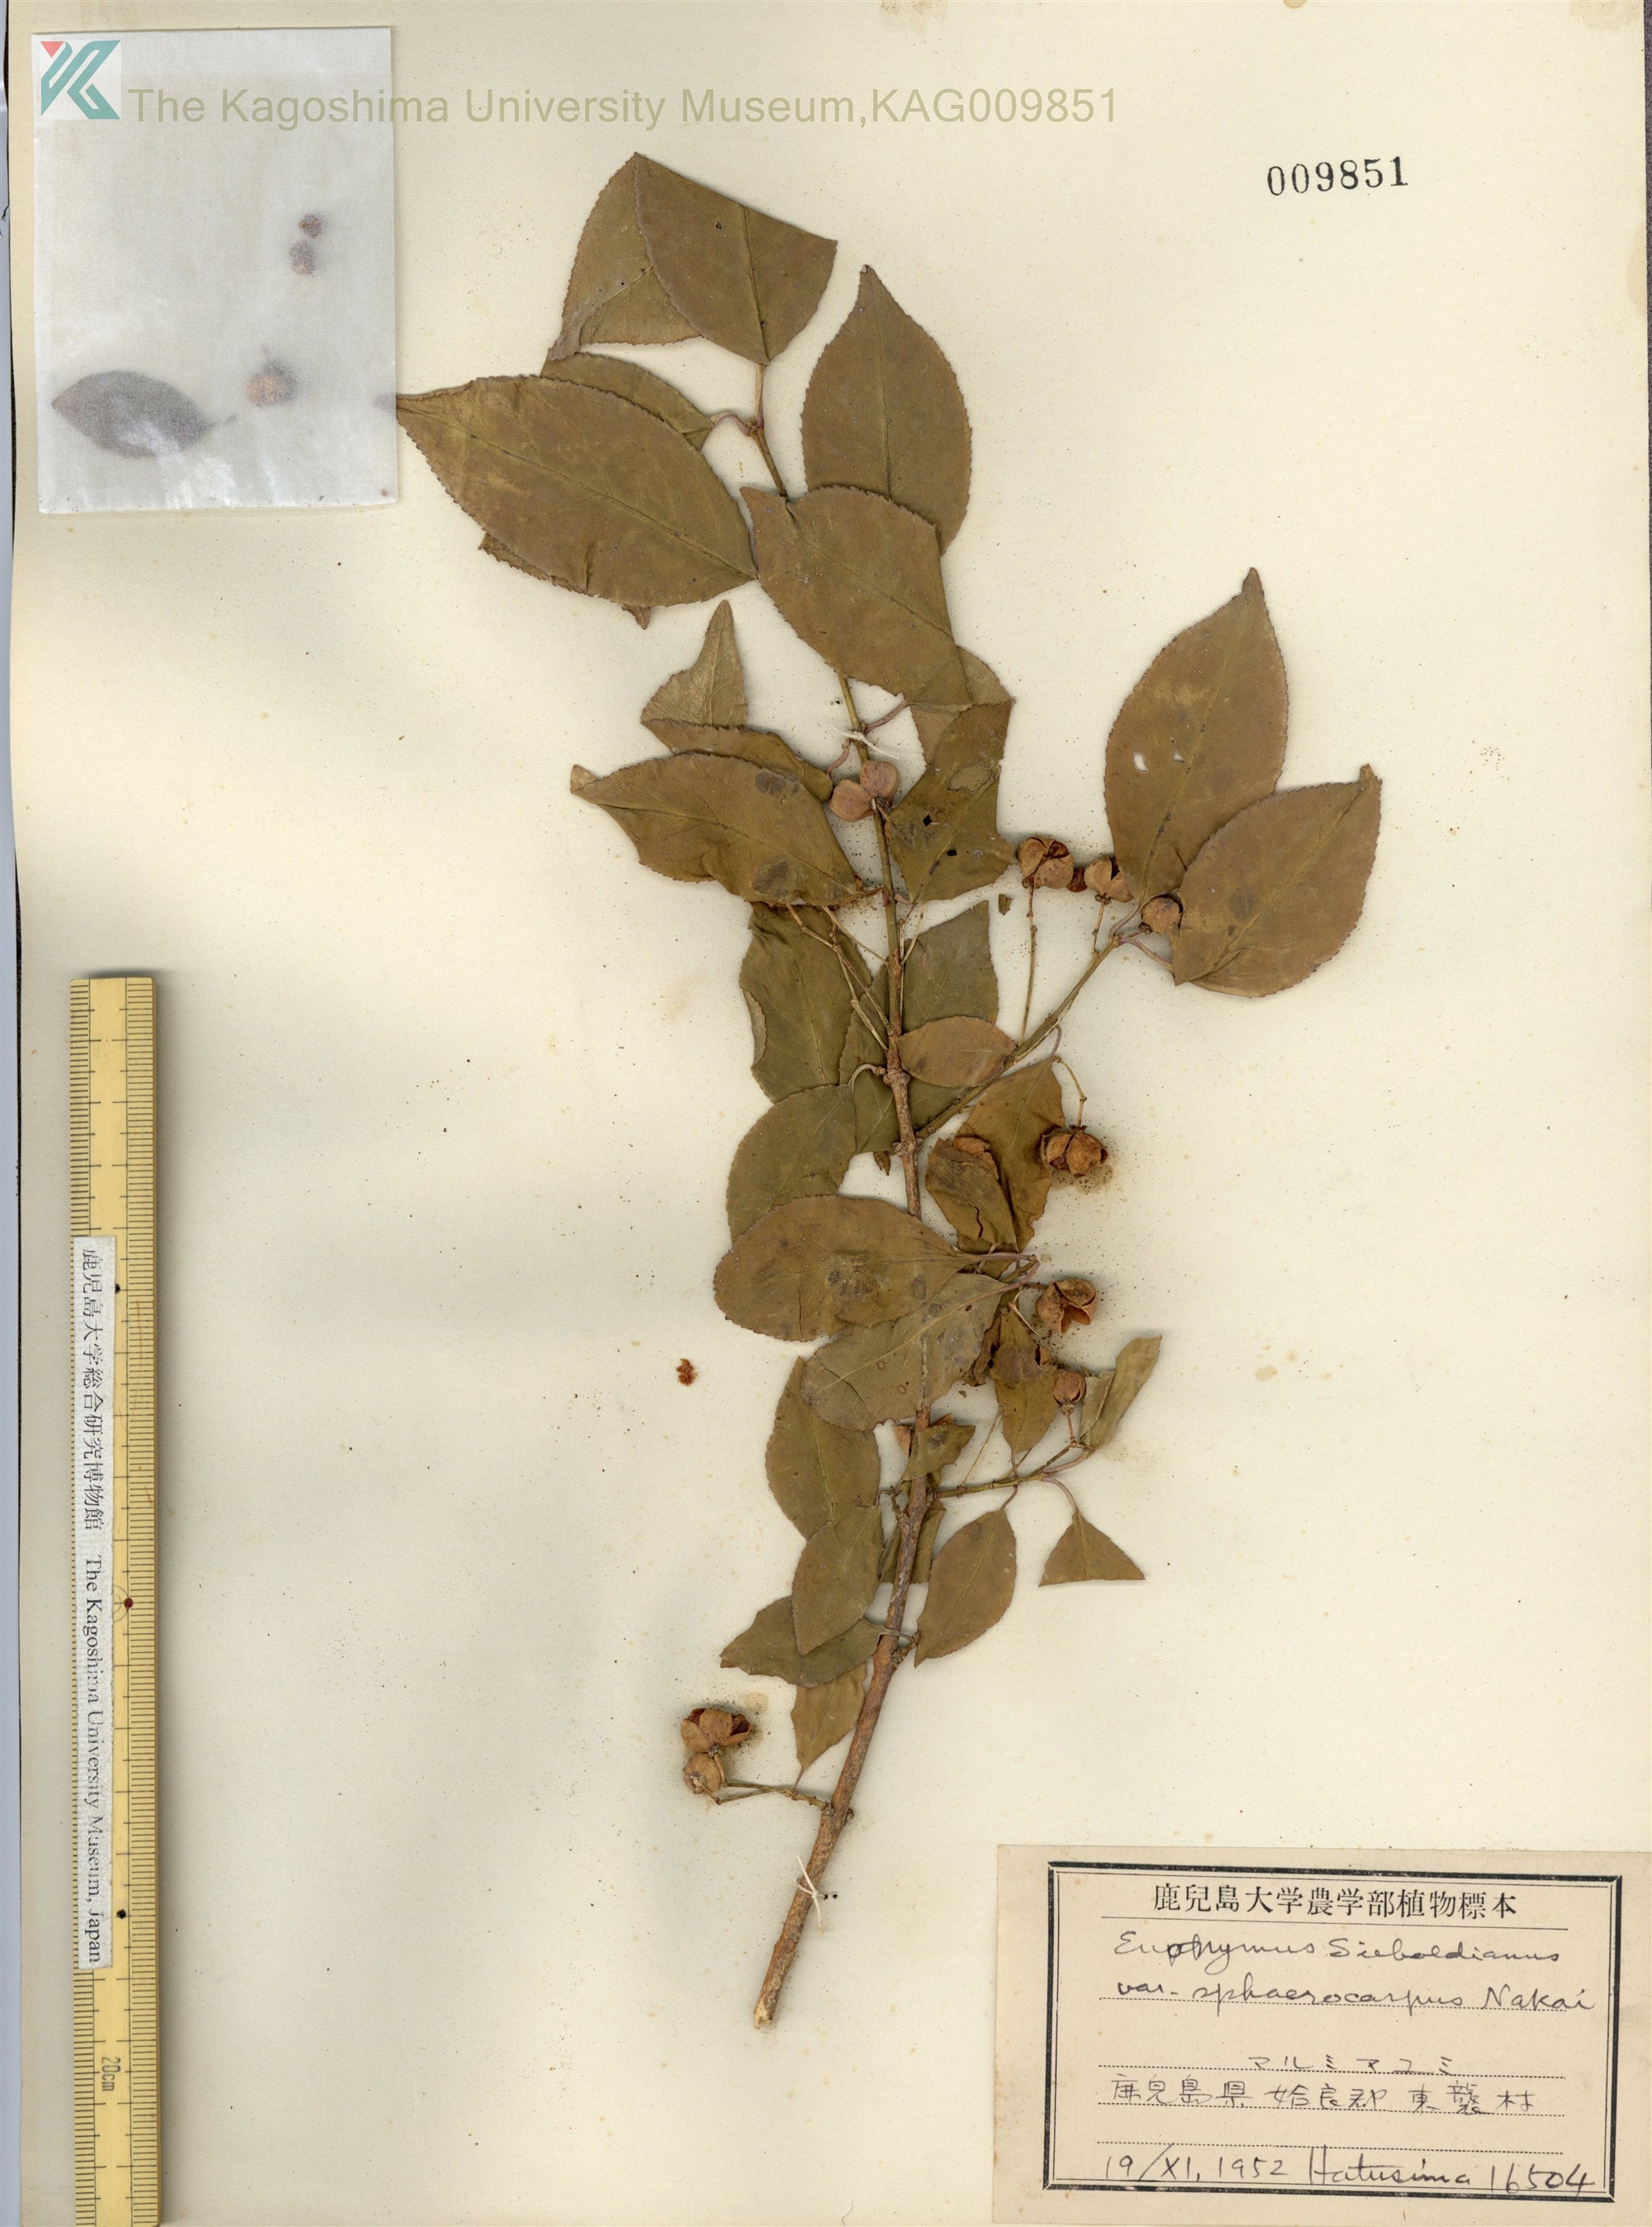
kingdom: Plantae
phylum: Tracheophyta
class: Magnoliopsida
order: Celastrales
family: Celastraceae
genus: Euonymus
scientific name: Euonymus hamiltonianus
